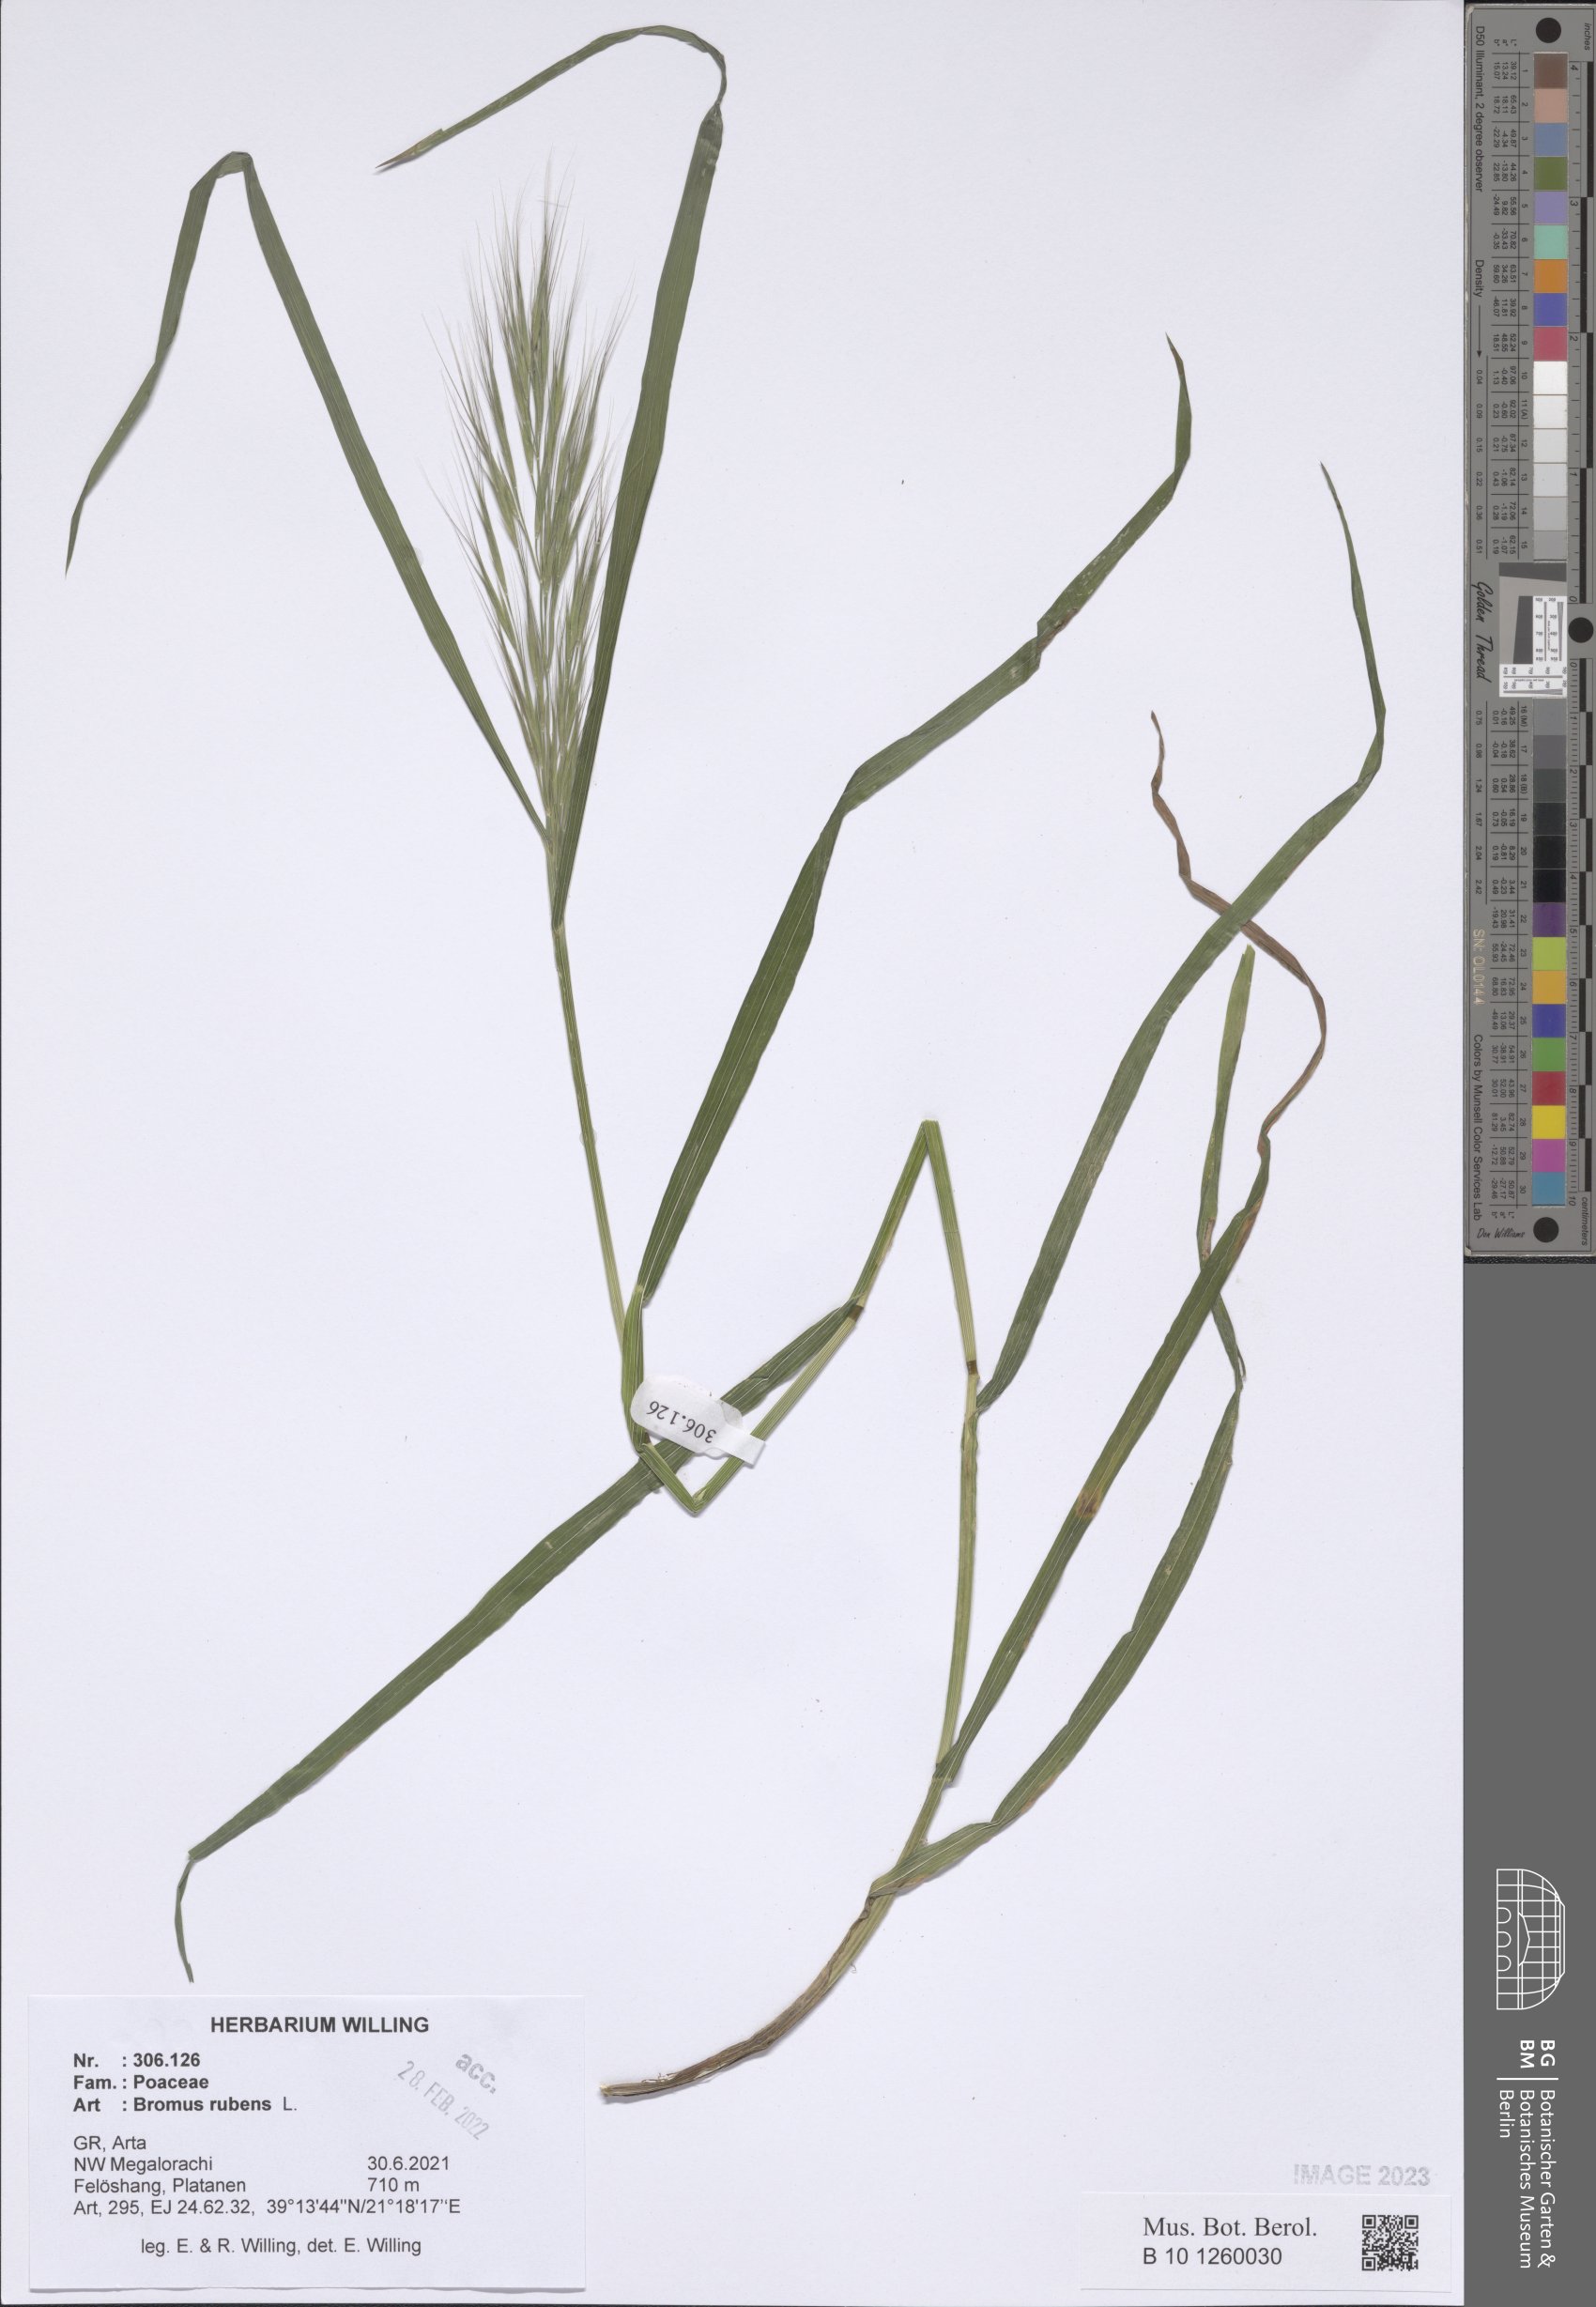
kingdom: Plantae
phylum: Tracheophyta
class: Liliopsida
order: Poales
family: Poaceae
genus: Bromus
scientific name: Bromus rubens
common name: Red brome
